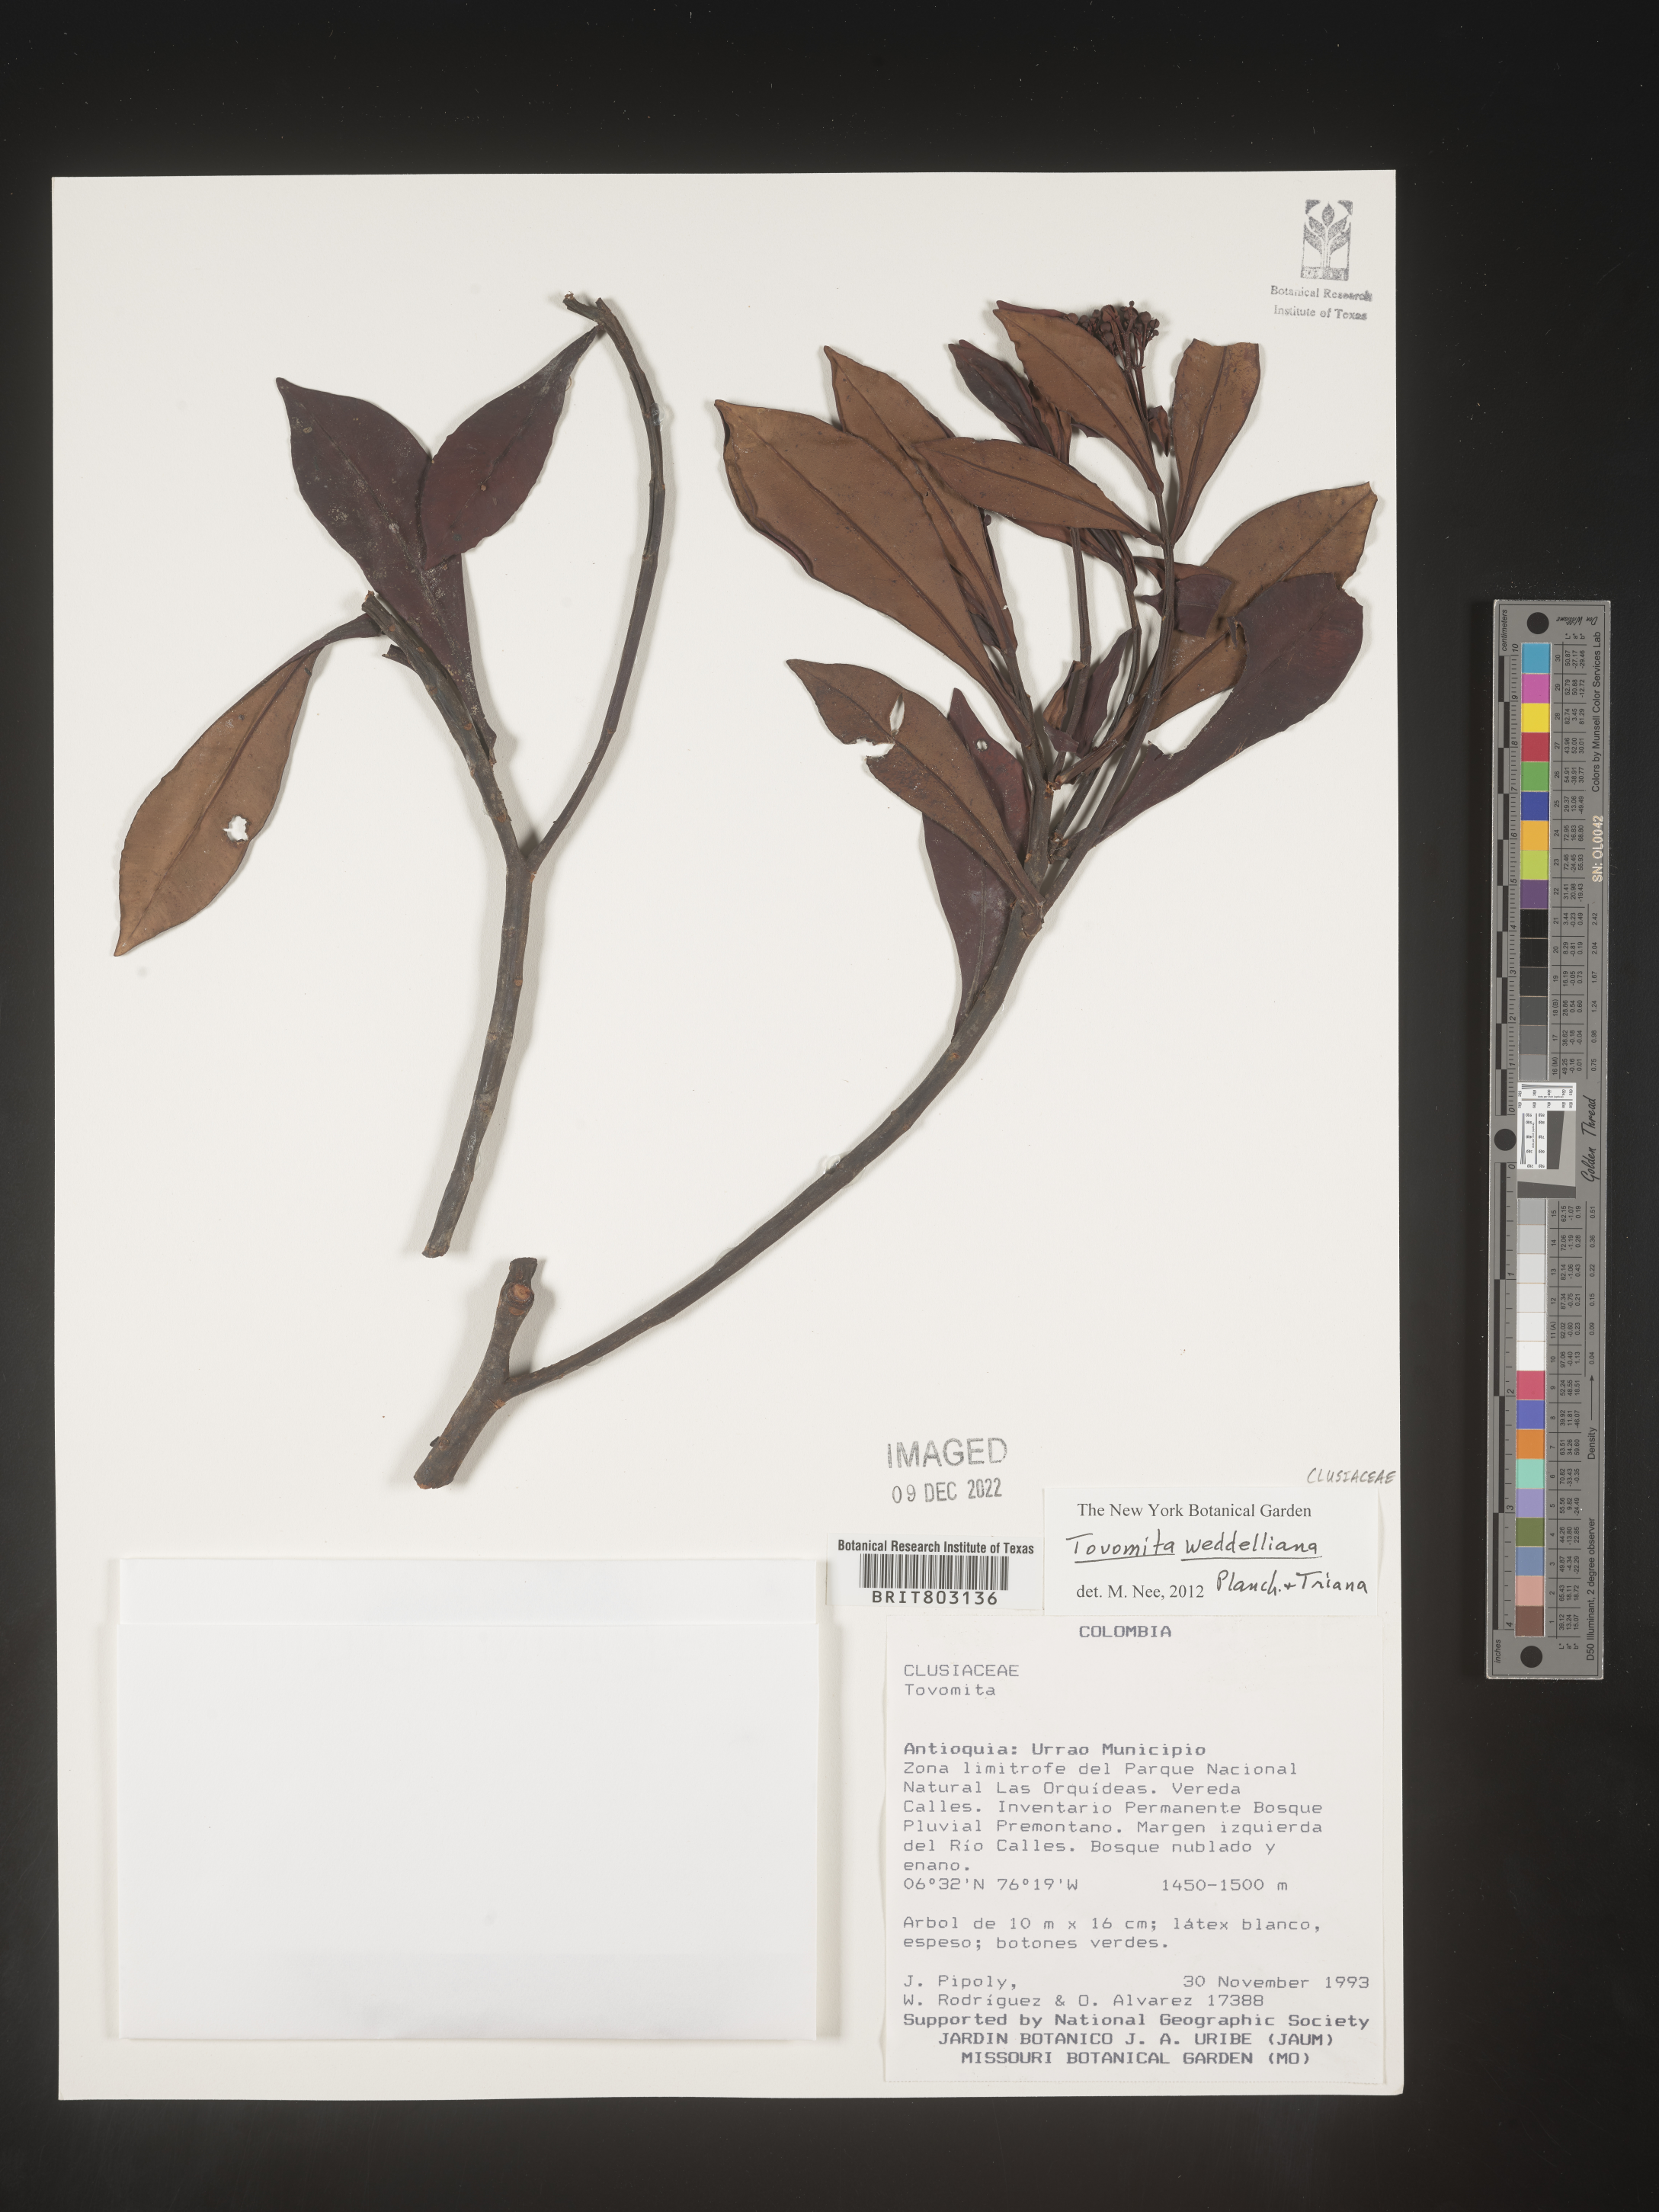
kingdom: Plantae
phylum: Tracheophyta
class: Magnoliopsida
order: Malpighiales
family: Clusiaceae
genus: Arawakia
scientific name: Arawakia weddelliana
